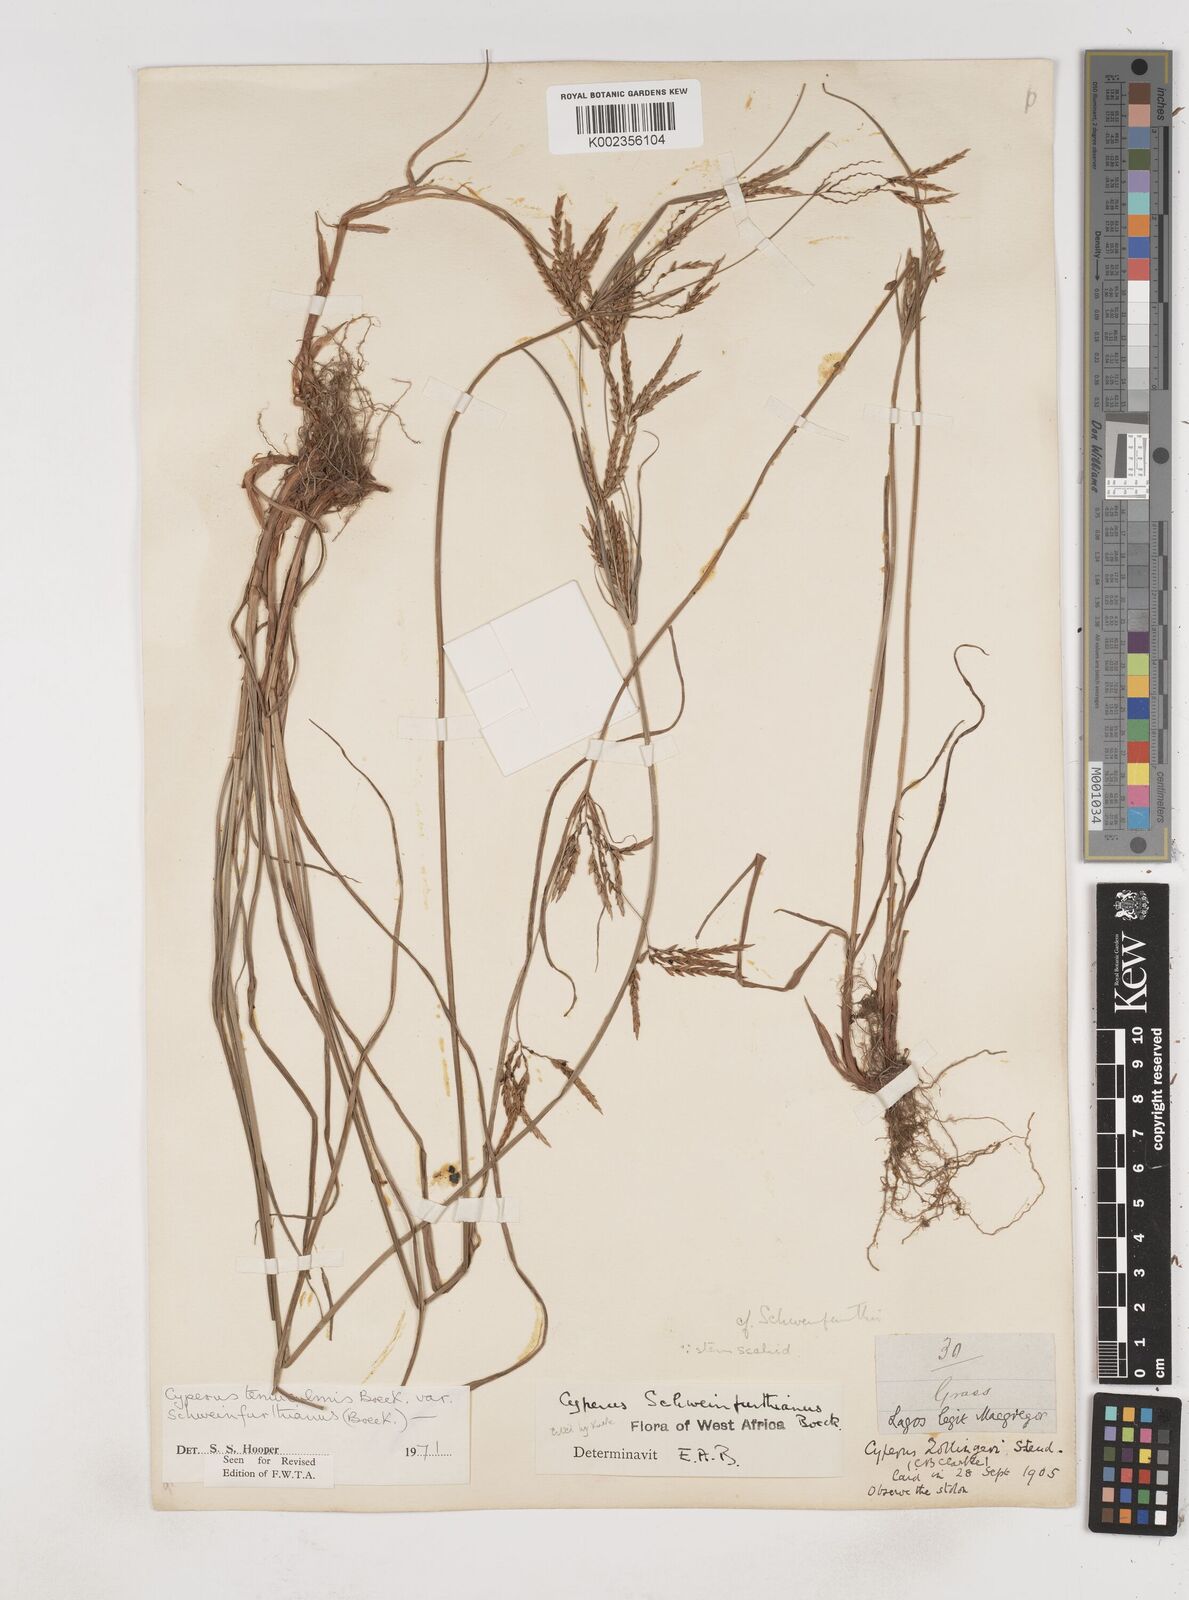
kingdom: Plantae
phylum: Tracheophyta
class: Liliopsida
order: Poales
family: Cyperaceae
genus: Cyperus
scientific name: Cyperus tenuiculmis
